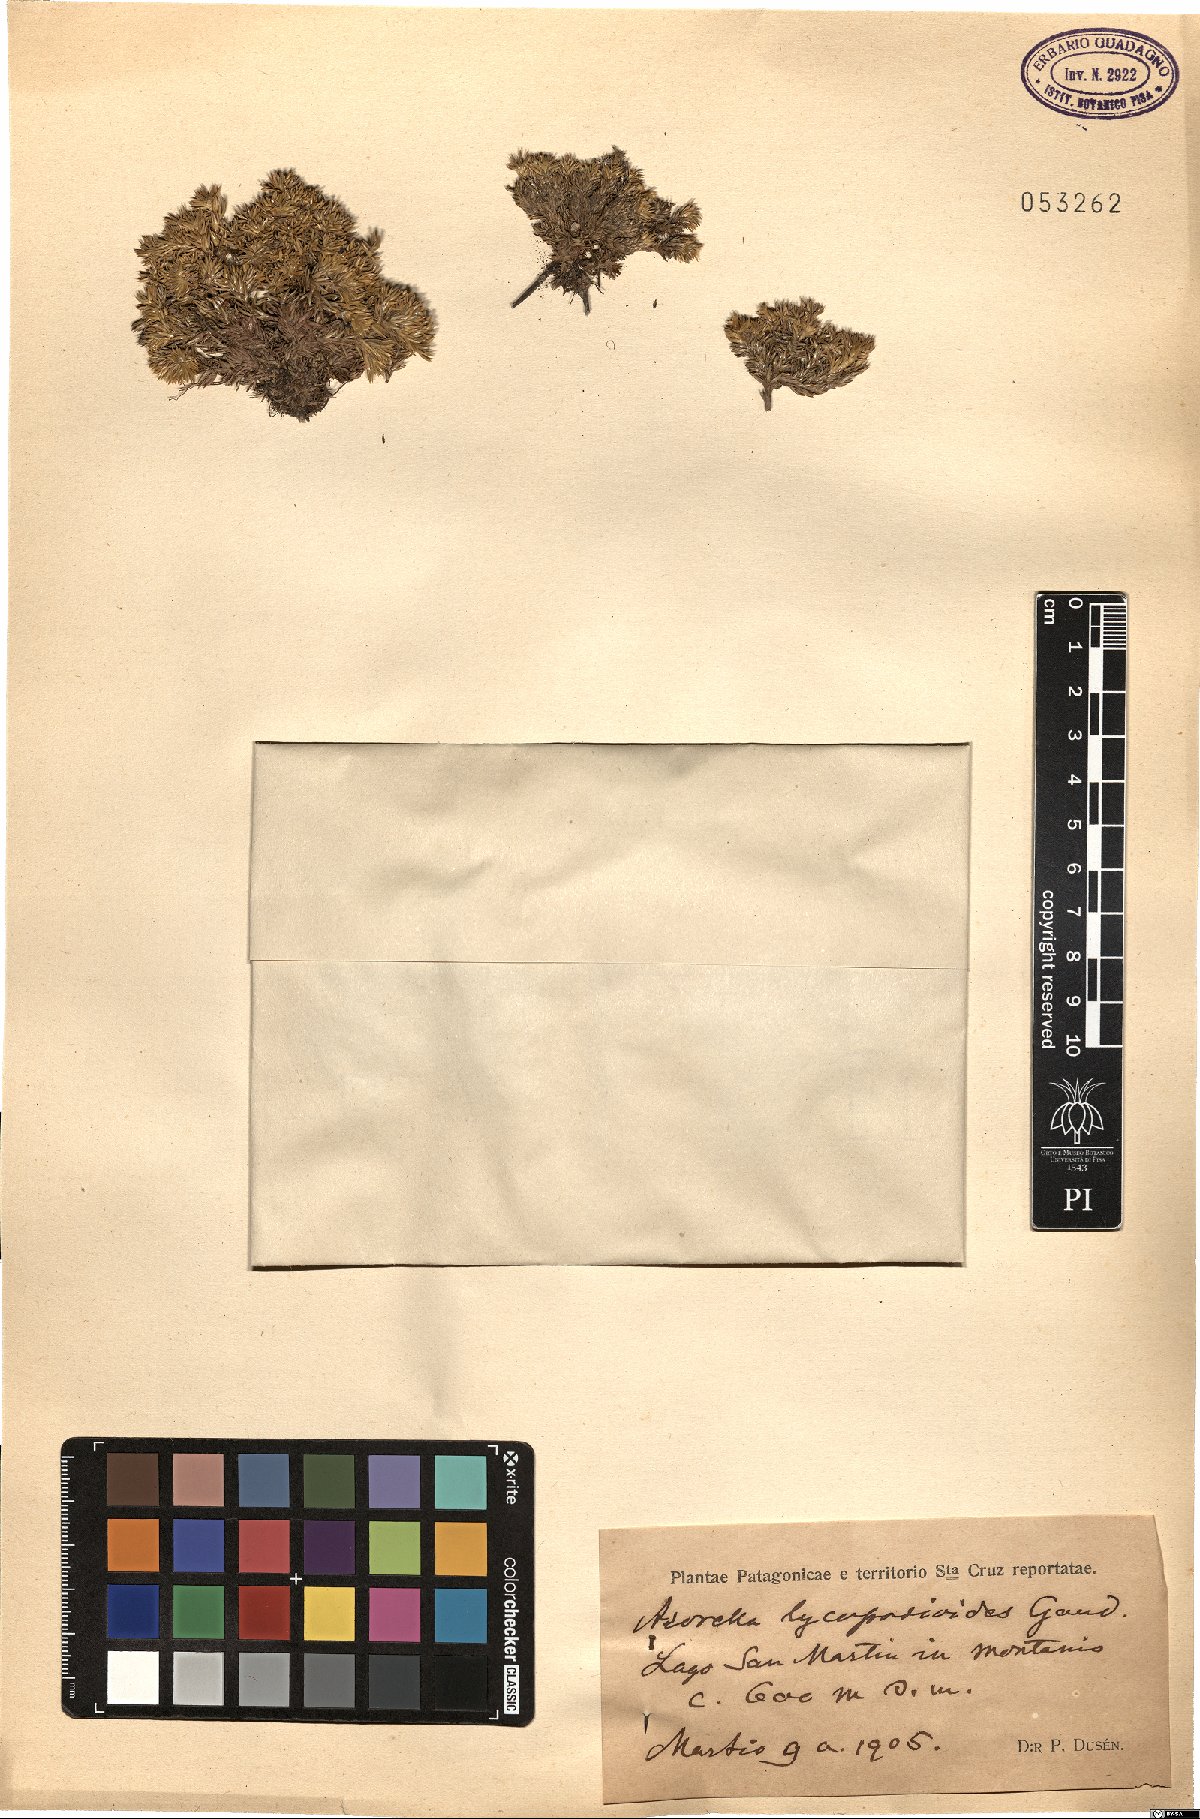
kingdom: Plantae
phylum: Tracheophyta
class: Magnoliopsida
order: Apiales
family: Apiaceae
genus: Azorella
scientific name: Azorella lycopodioides
